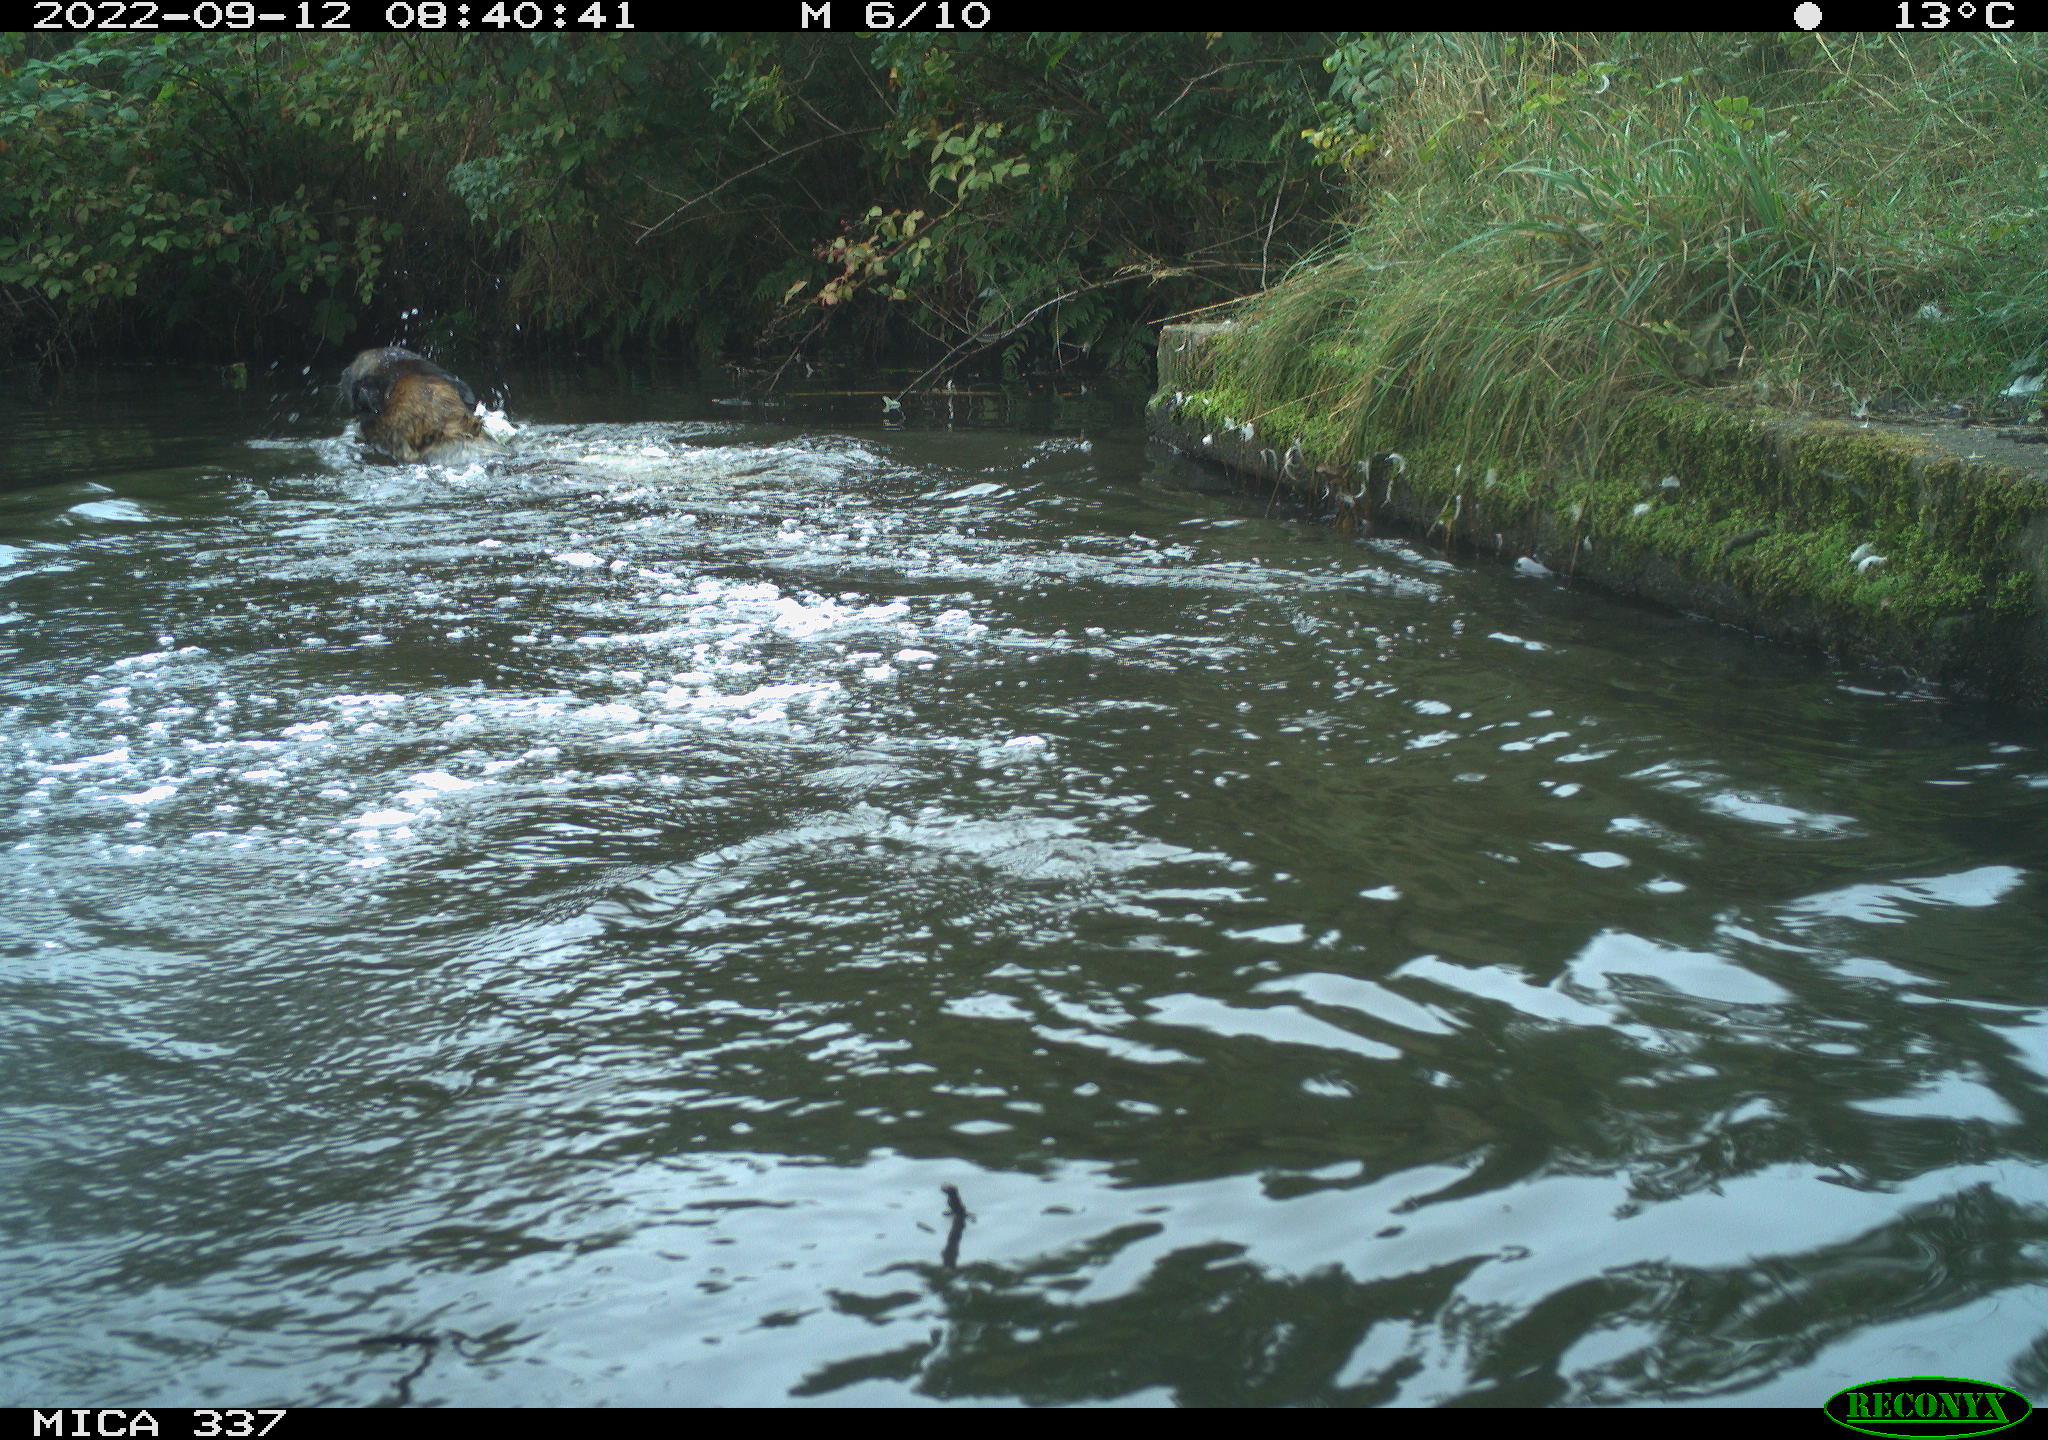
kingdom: Animalia
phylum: Chordata
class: Mammalia
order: Carnivora
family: Canidae
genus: Canis
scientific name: Canis lupus
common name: Gray wolf
